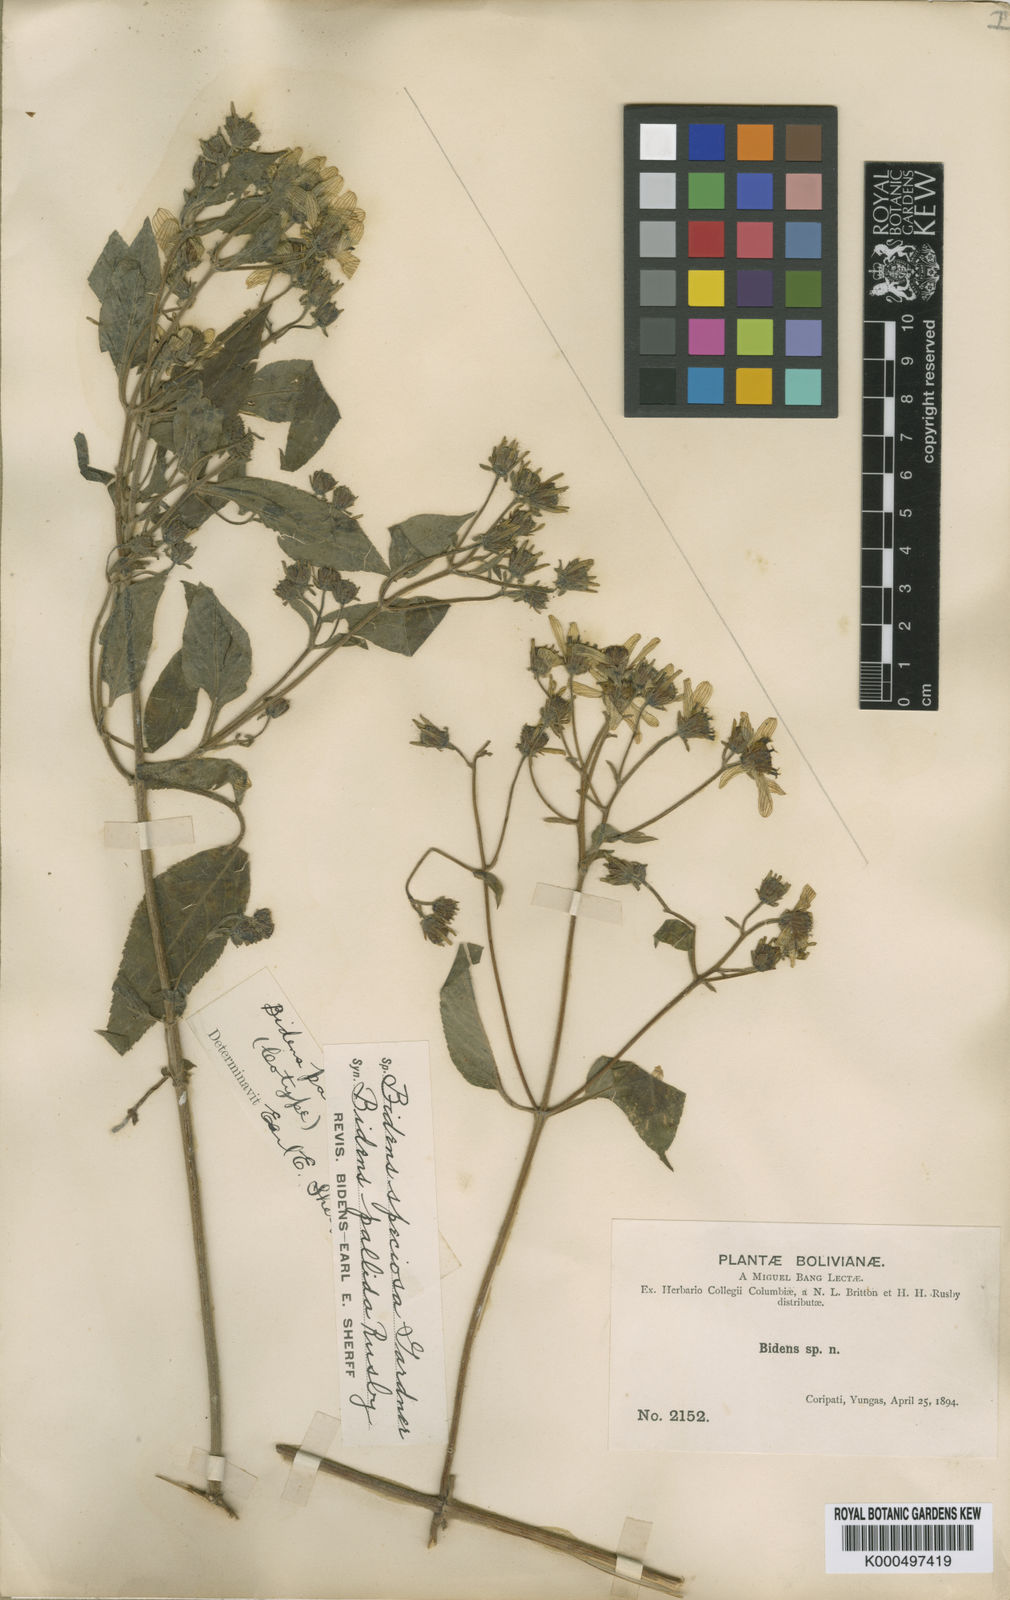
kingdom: Plantae
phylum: Tracheophyta
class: Magnoliopsida
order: Asterales
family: Asteraceae
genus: Bidens
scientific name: Bidens segetum
